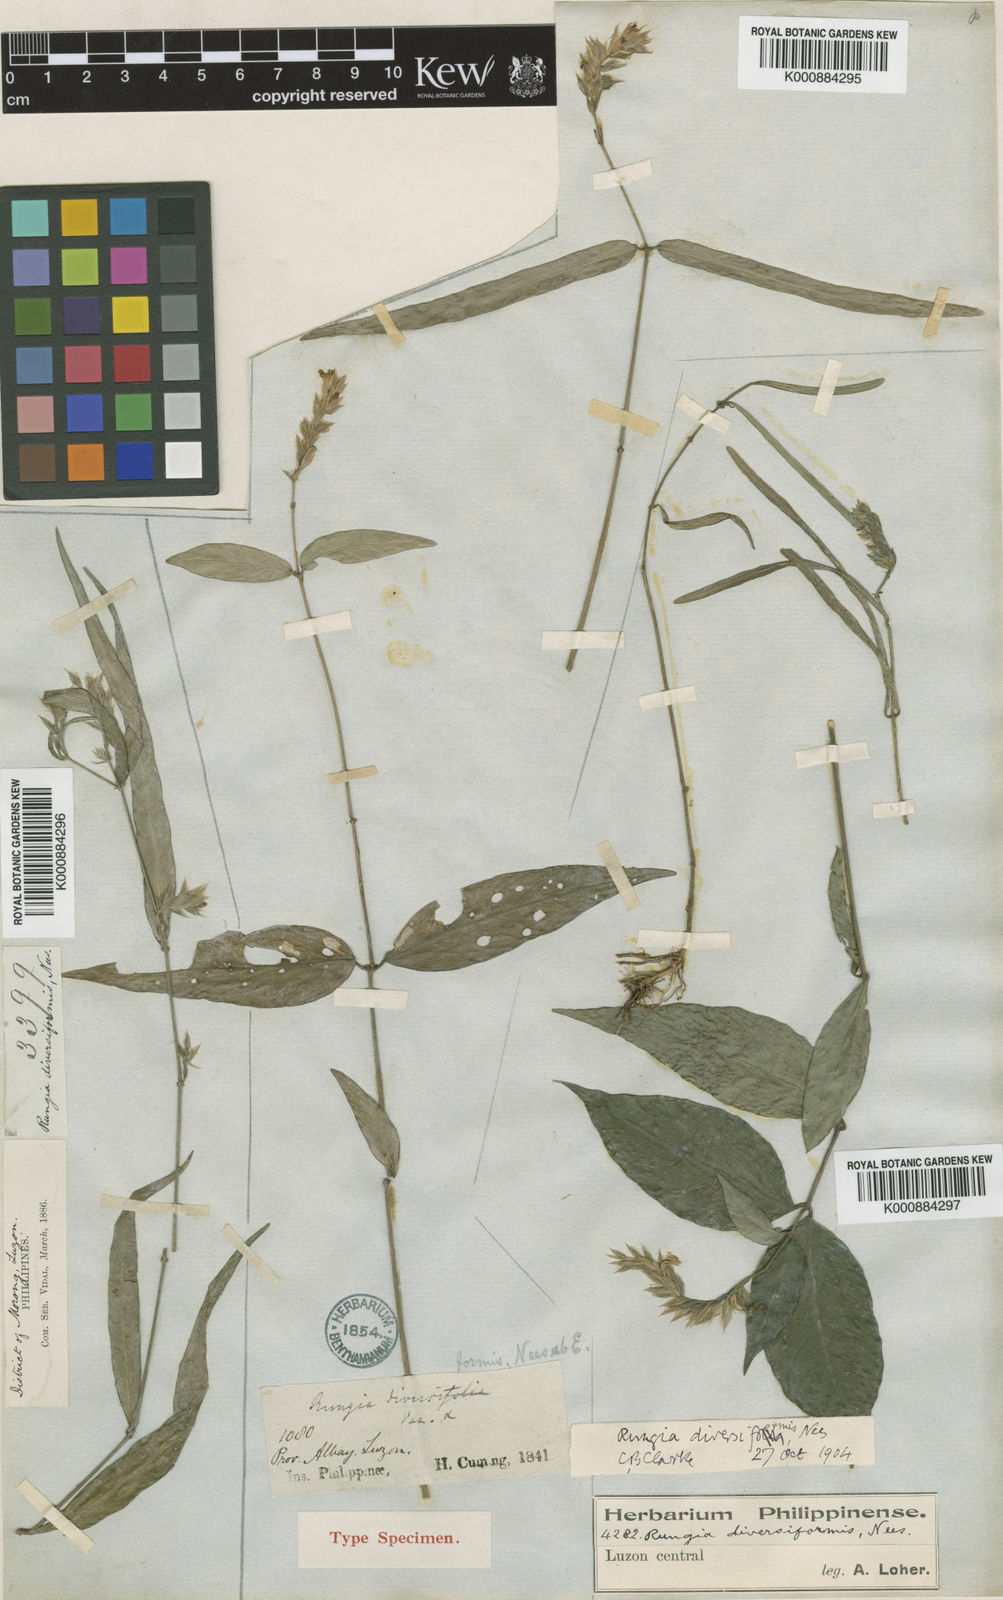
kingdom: Plantae
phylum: Tracheophyta
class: Magnoliopsida
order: Lamiales
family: Acanthaceae
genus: Justicia
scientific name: Justicia
